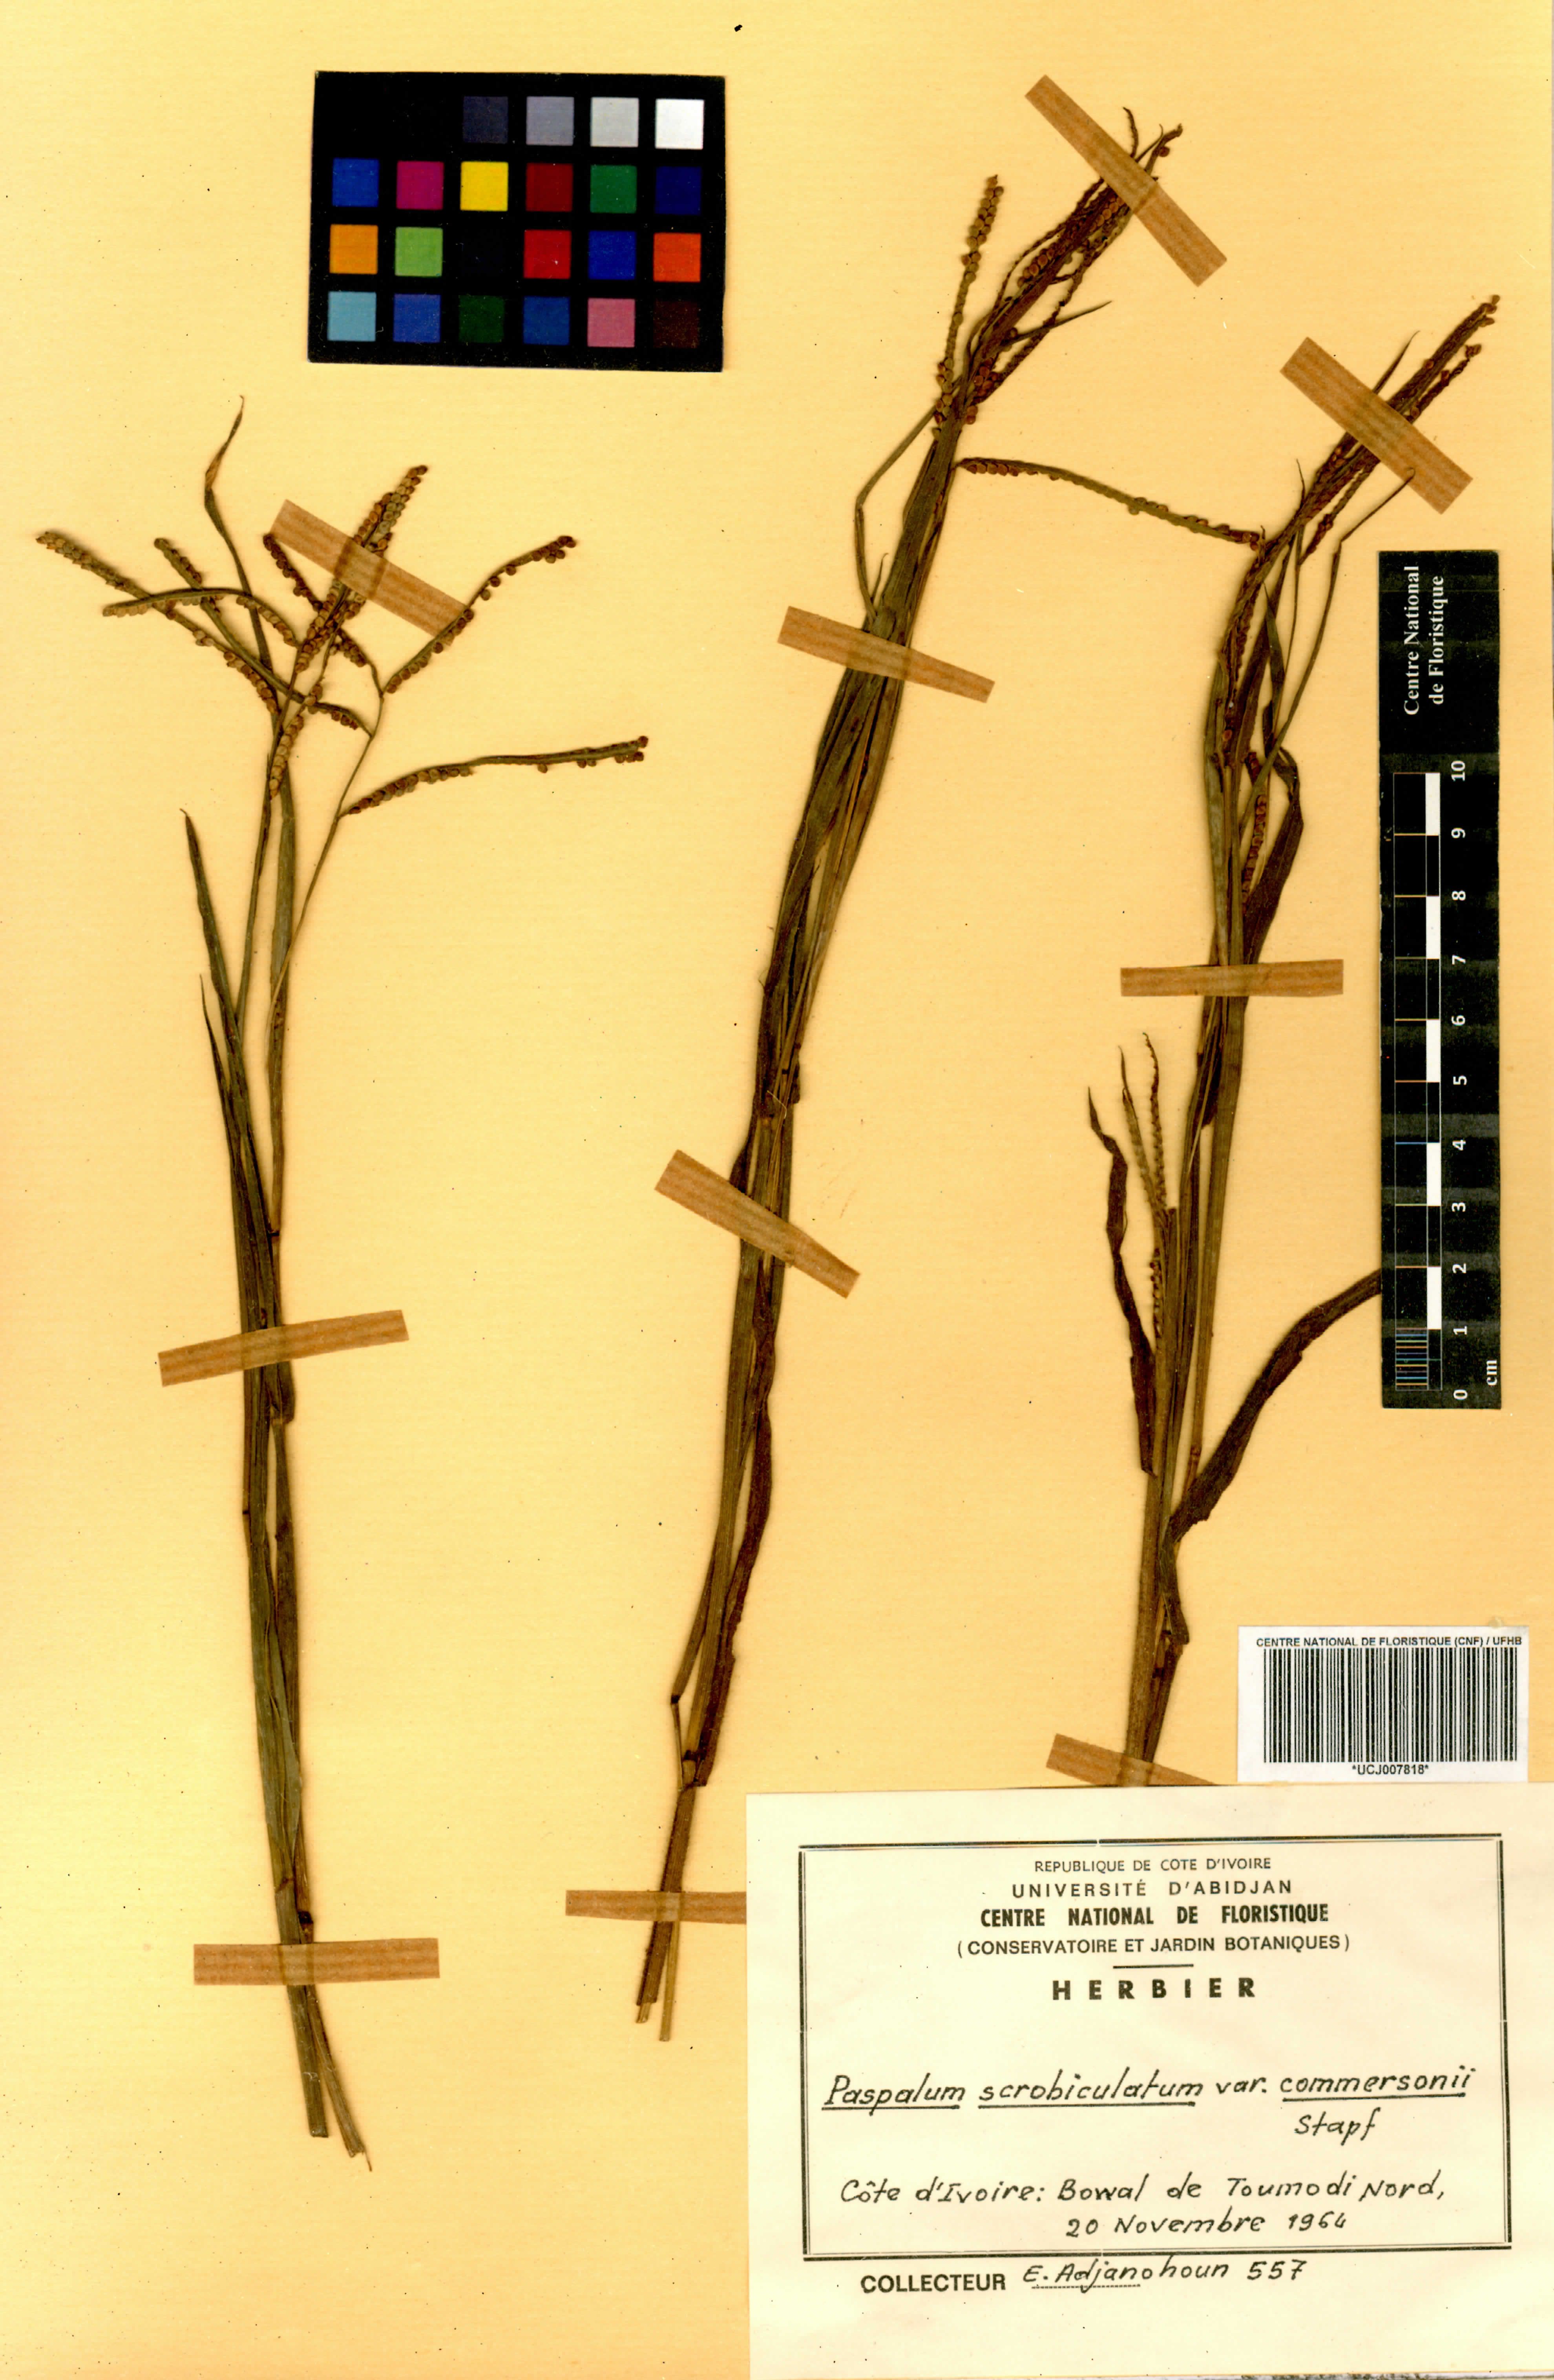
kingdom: Plantae
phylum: Tracheophyta
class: Liliopsida
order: Poales
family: Poaceae
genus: Paspalum
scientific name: Paspalum scrobiculatum
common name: Kodo millet
